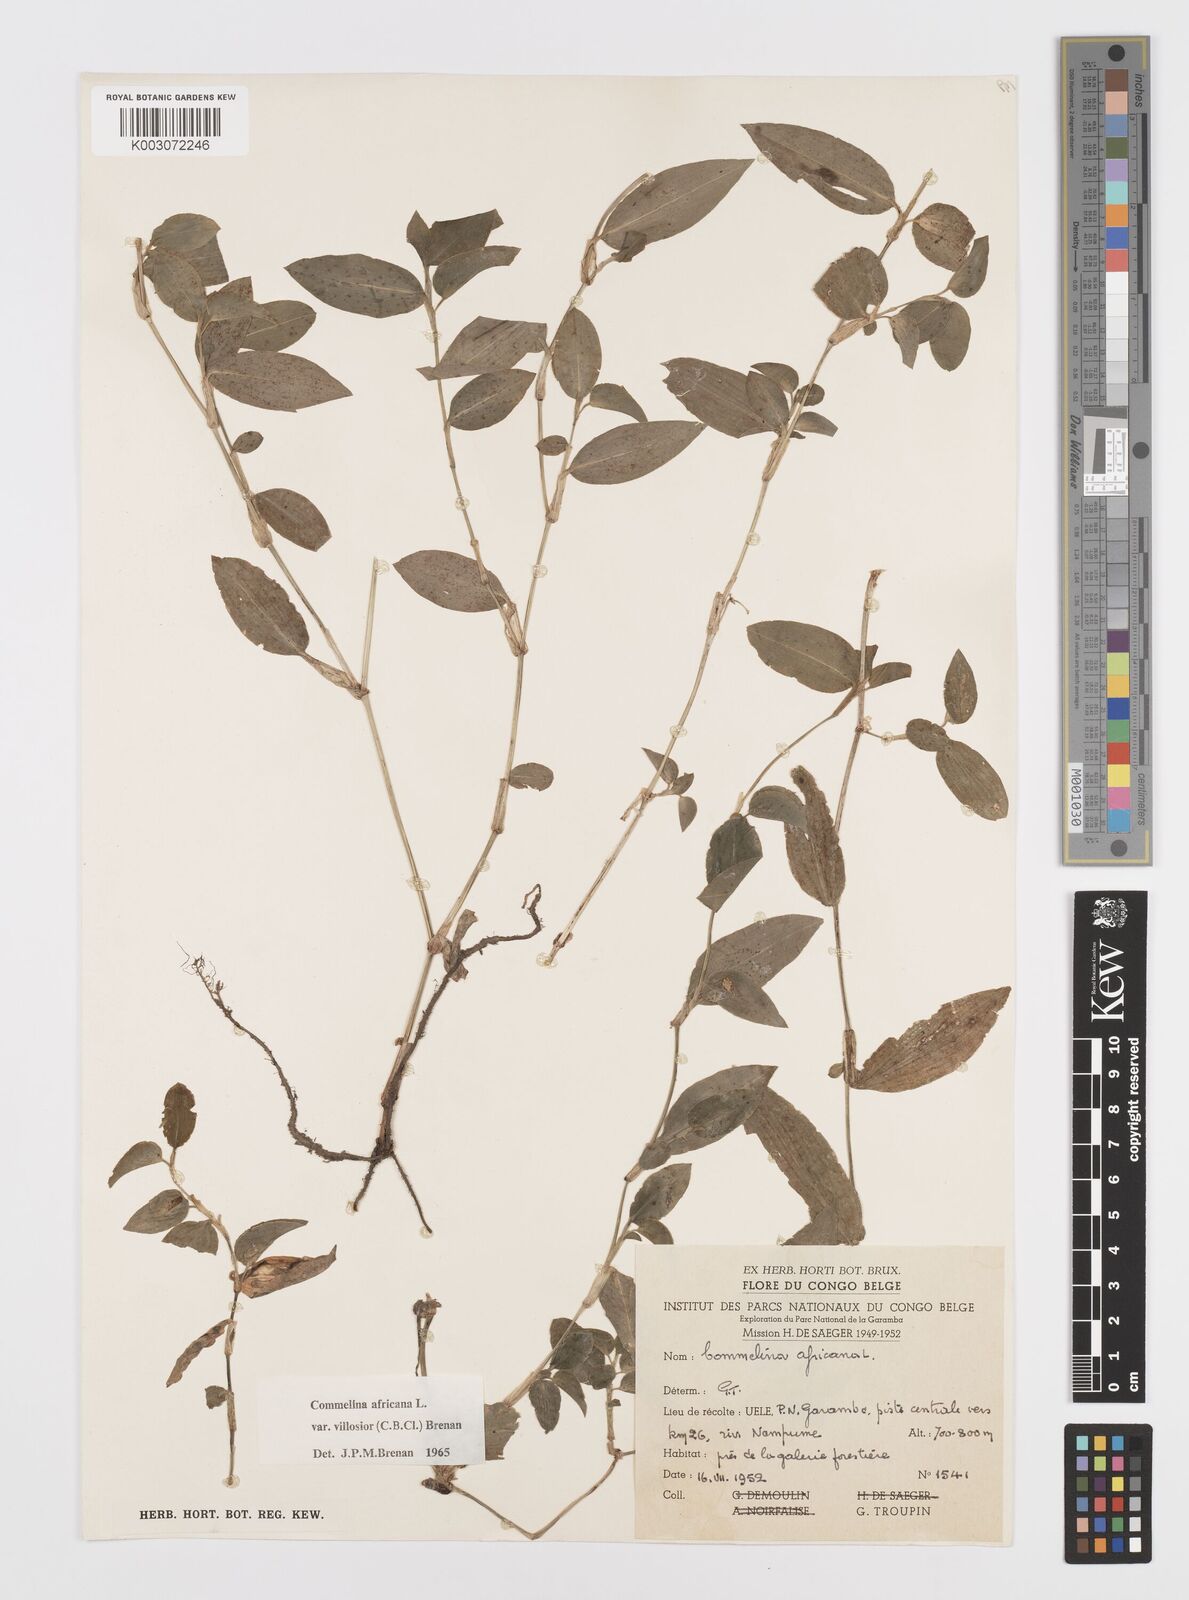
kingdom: Plantae
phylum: Tracheophyta
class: Liliopsida
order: Commelinales
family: Commelinaceae
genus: Commelina
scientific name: Commelina africana
